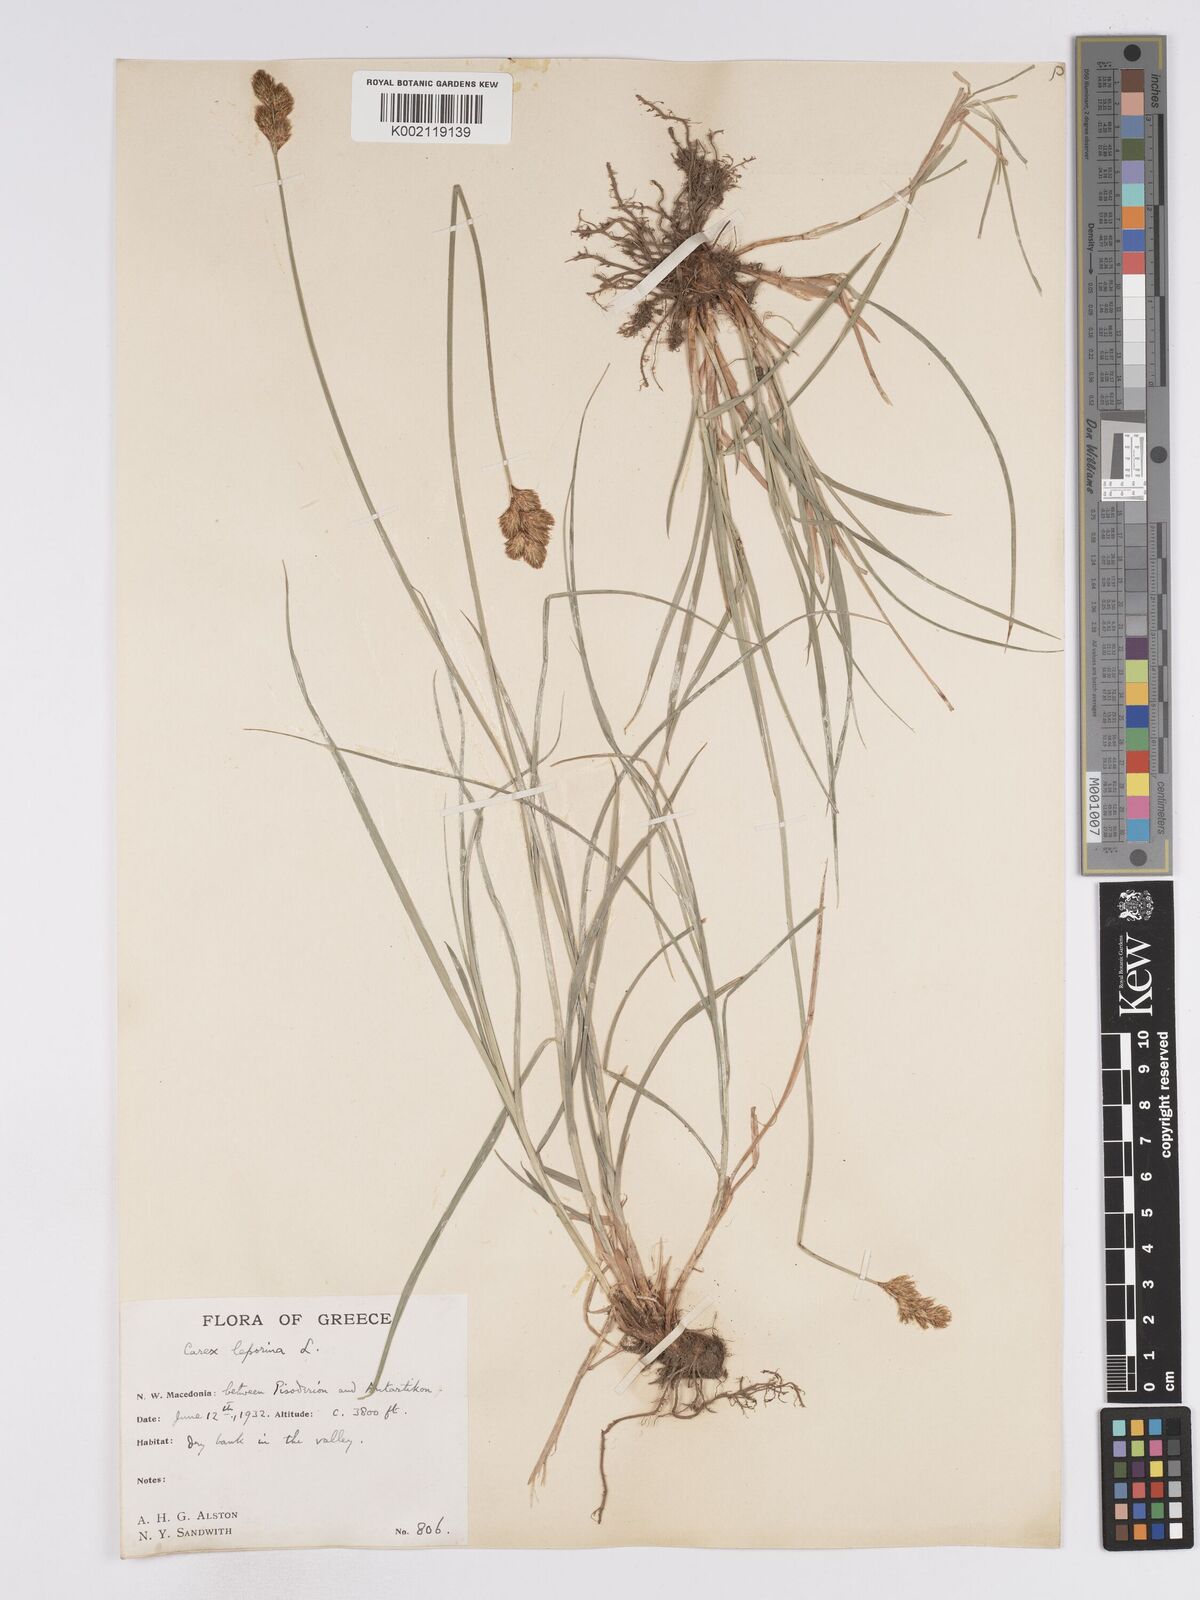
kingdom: Plantae
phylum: Tracheophyta
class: Liliopsida
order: Poales
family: Cyperaceae
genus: Carex
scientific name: Carex leporina
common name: Oval sedge
